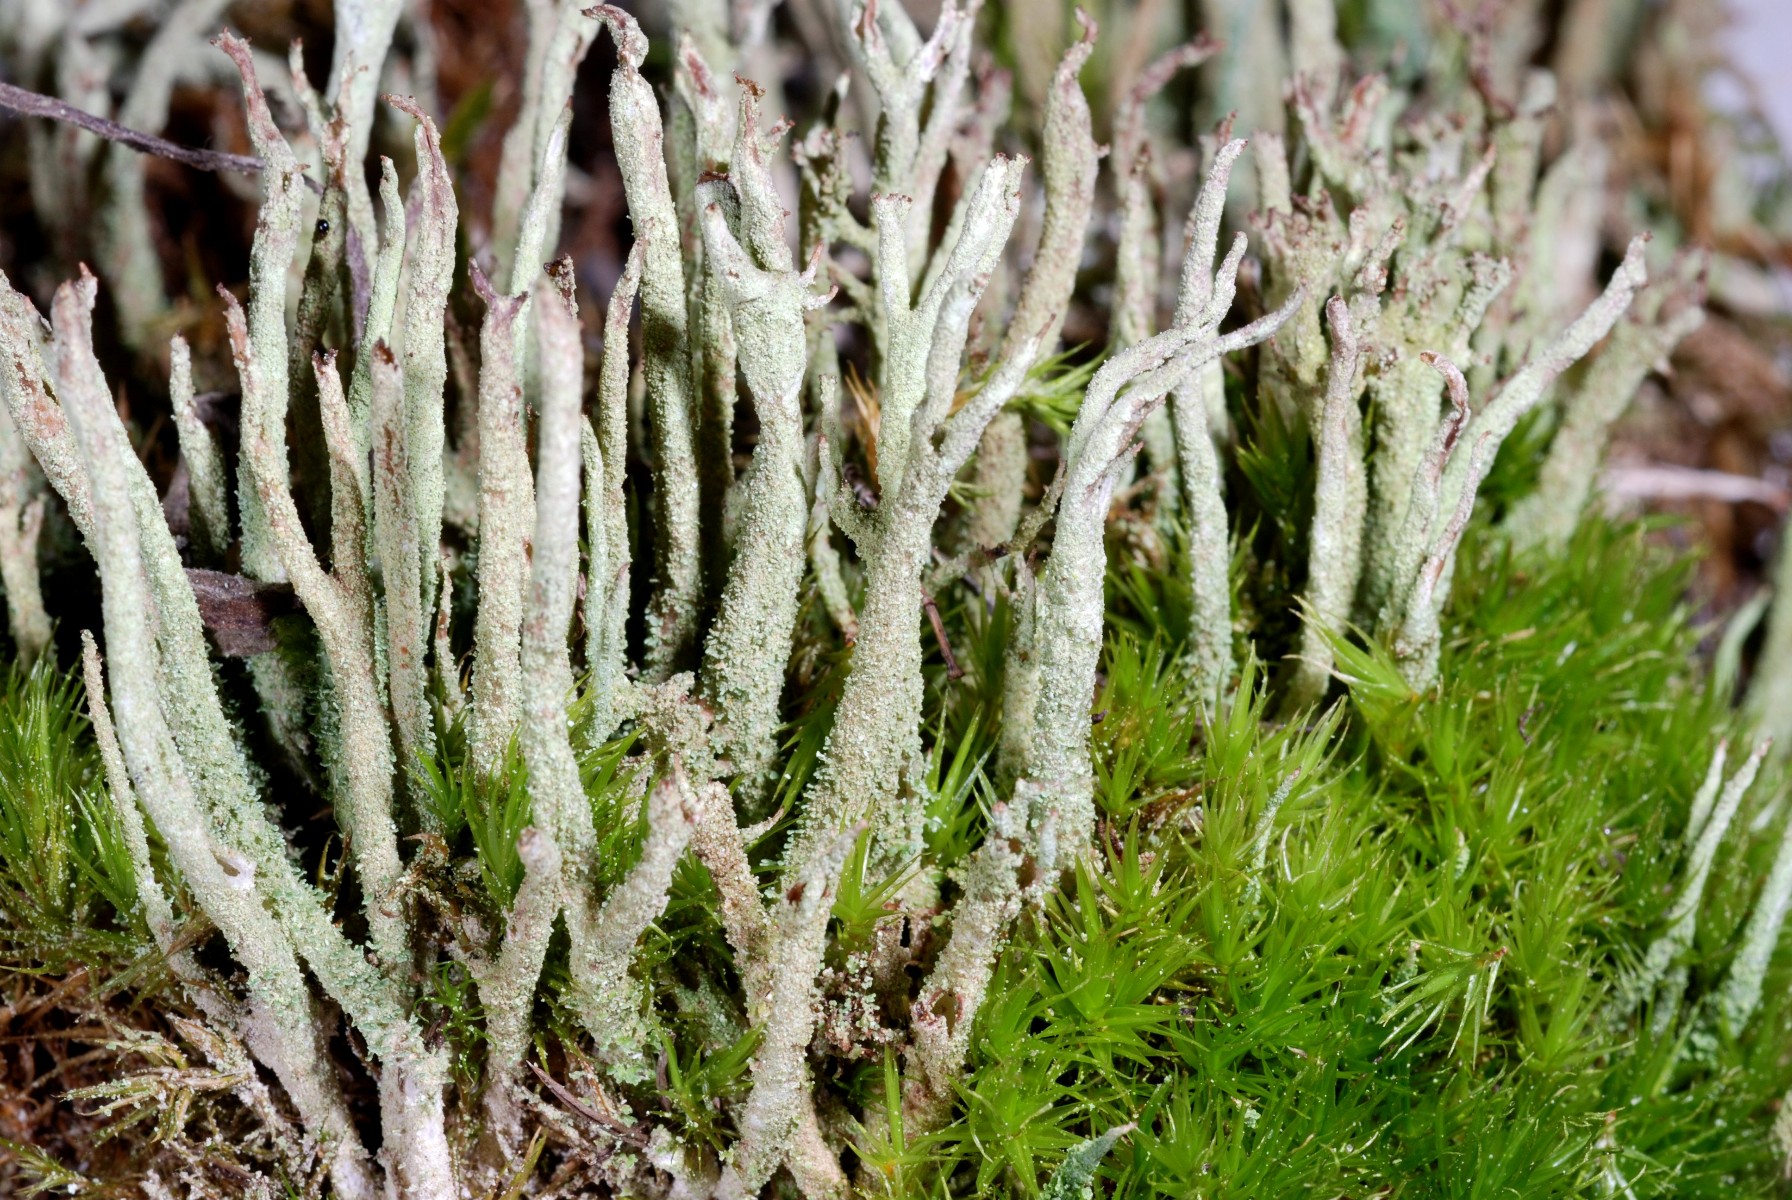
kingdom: Fungi
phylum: Ascomycota
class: Lecanoromycetes
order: Lecanorales
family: Cladoniaceae
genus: Cladonia
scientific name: Cladonia glauca
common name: grågrøn bægerlav
